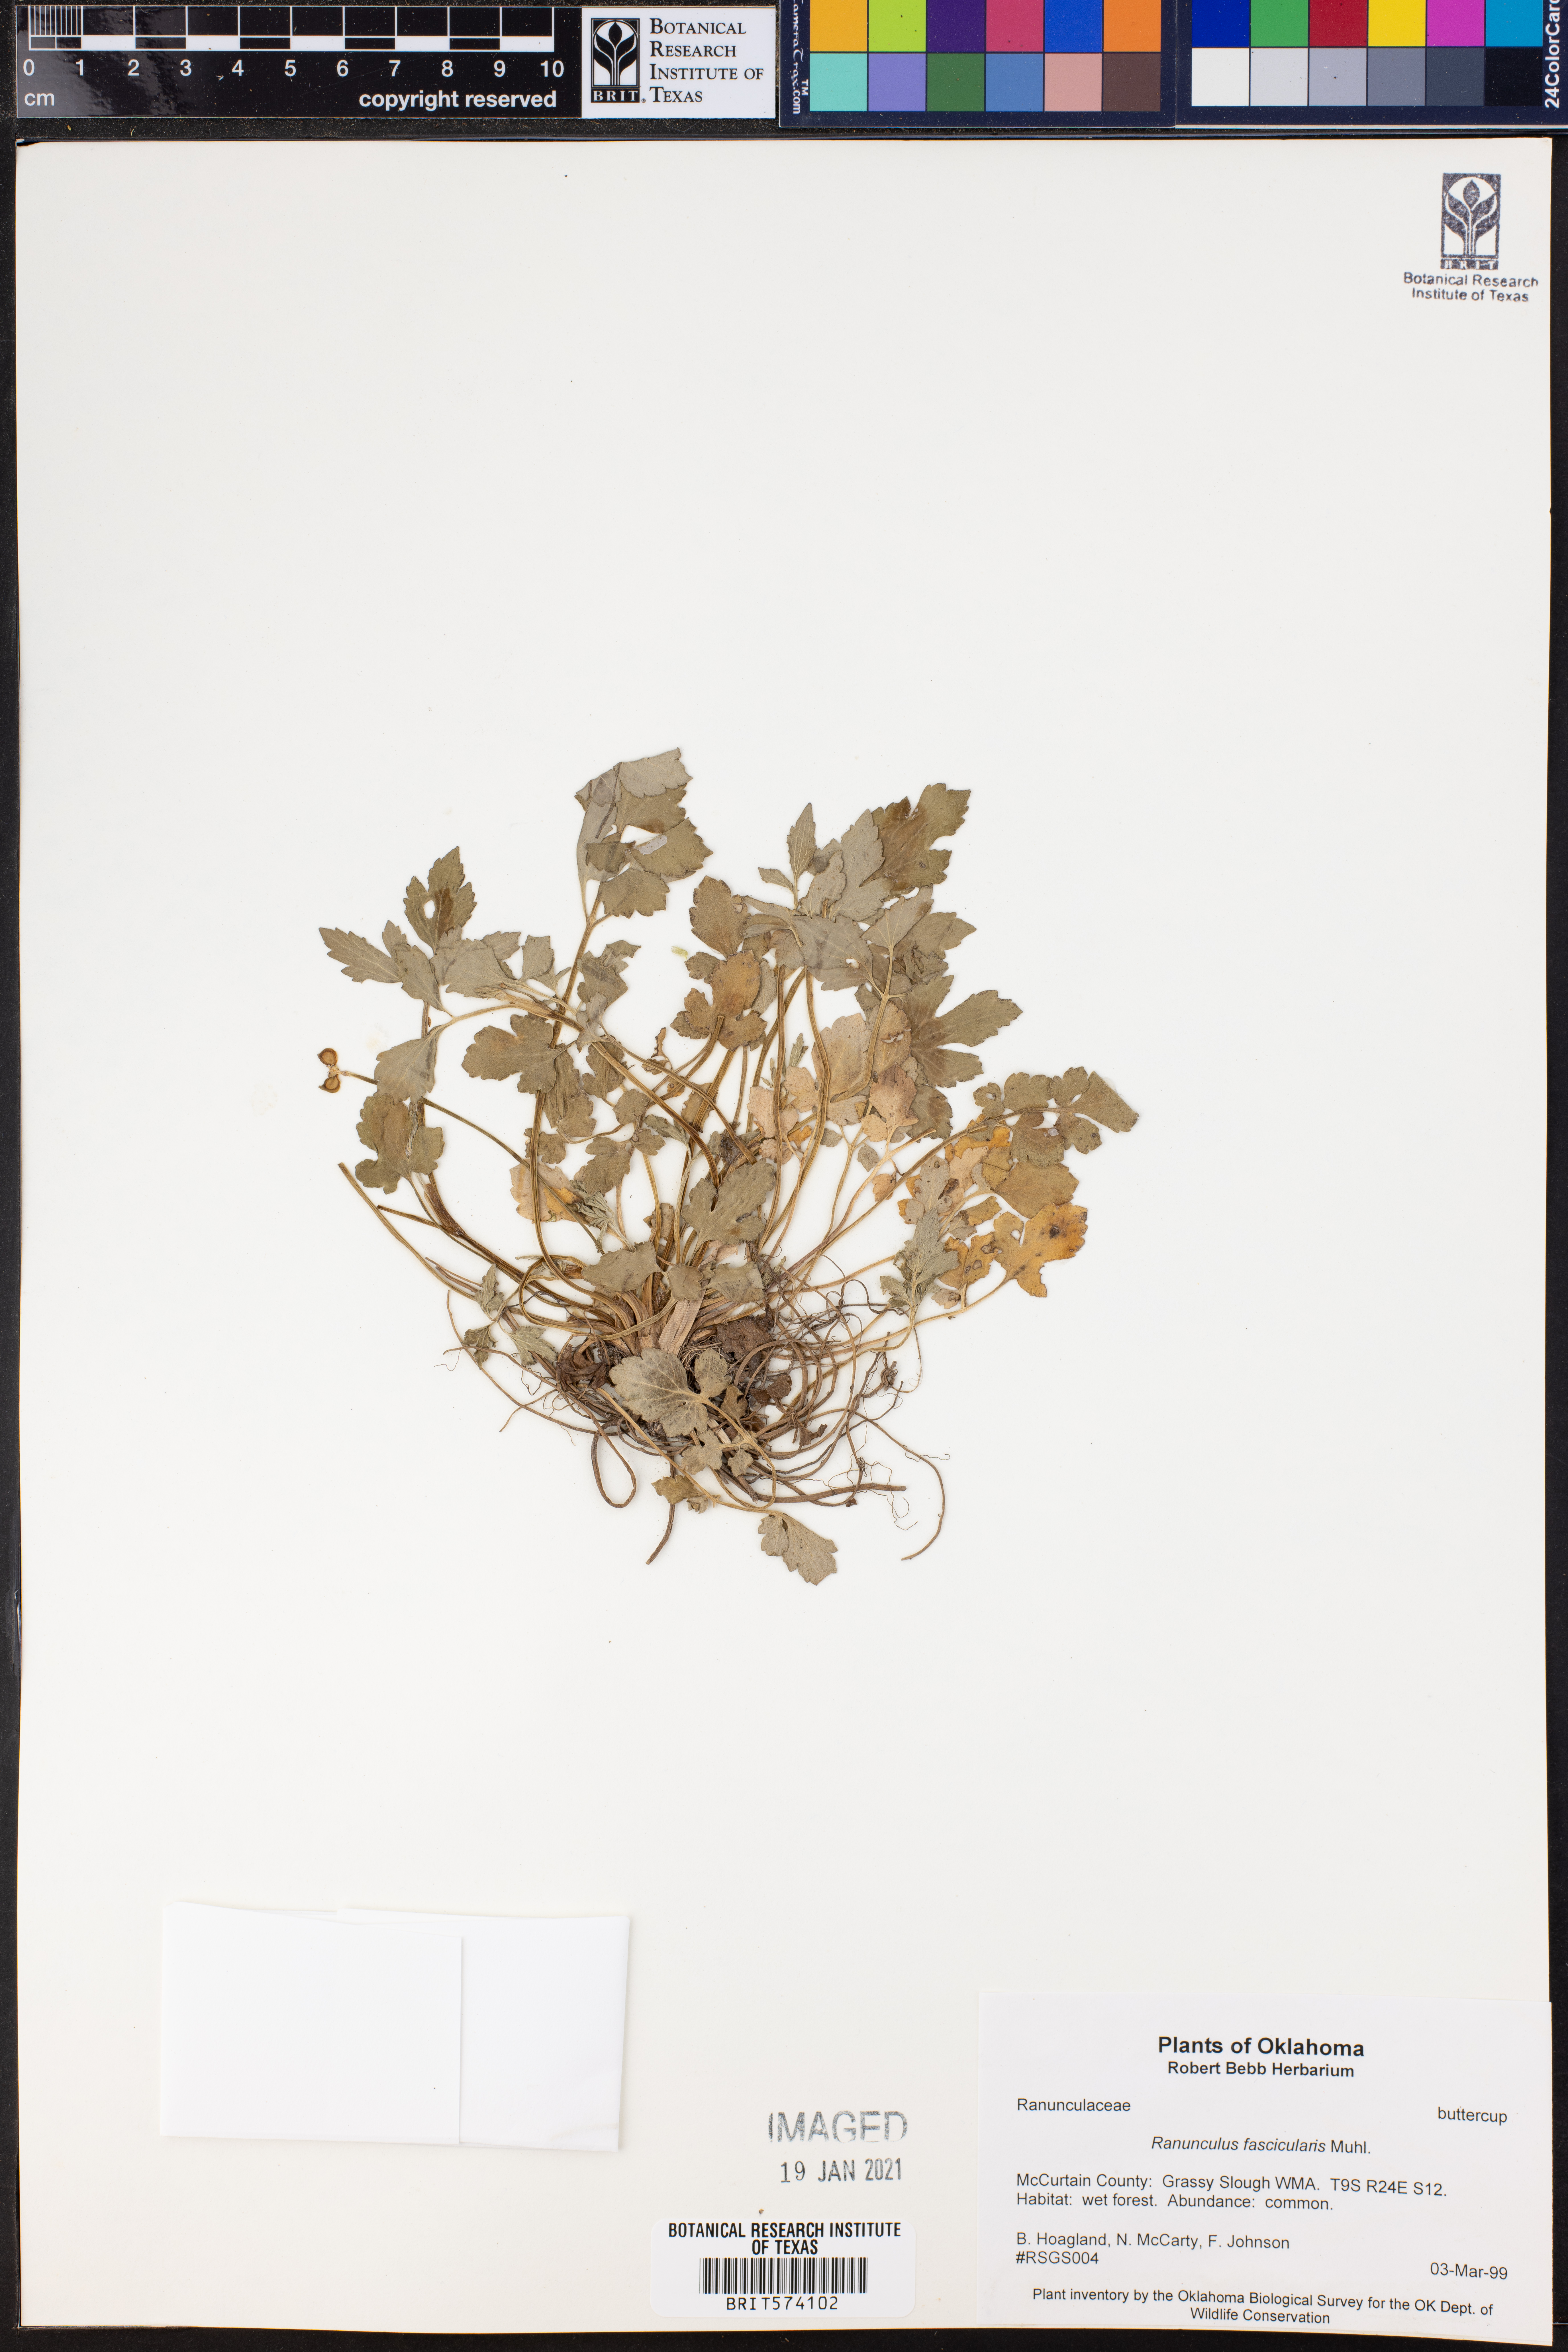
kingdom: Plantae
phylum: Tracheophyta
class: Magnoliopsida
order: Ranunculales
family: Ranunculaceae
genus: Ranunculus
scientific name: Ranunculus fascicularis
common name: Early buttercup
